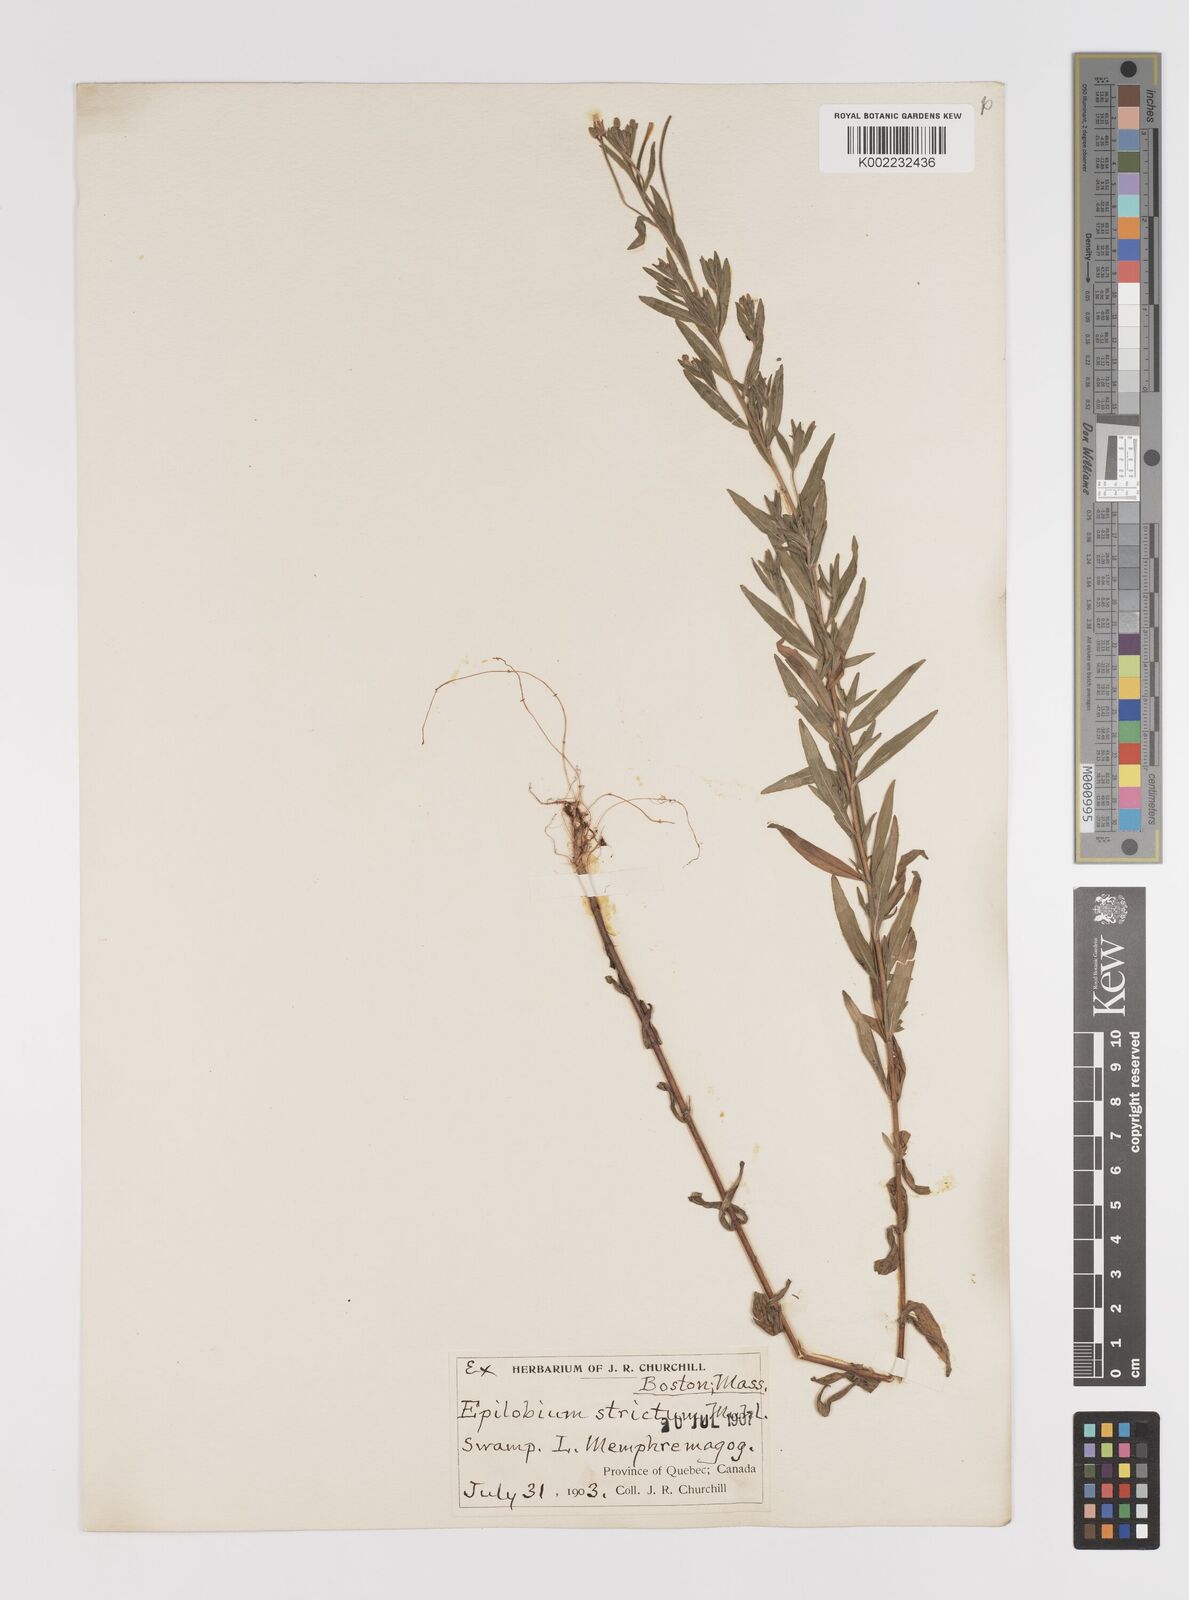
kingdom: Plantae
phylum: Tracheophyta
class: Magnoliopsida
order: Myrtales
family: Onagraceae
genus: Epilobium
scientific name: Epilobium densum
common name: Downy willowherb
